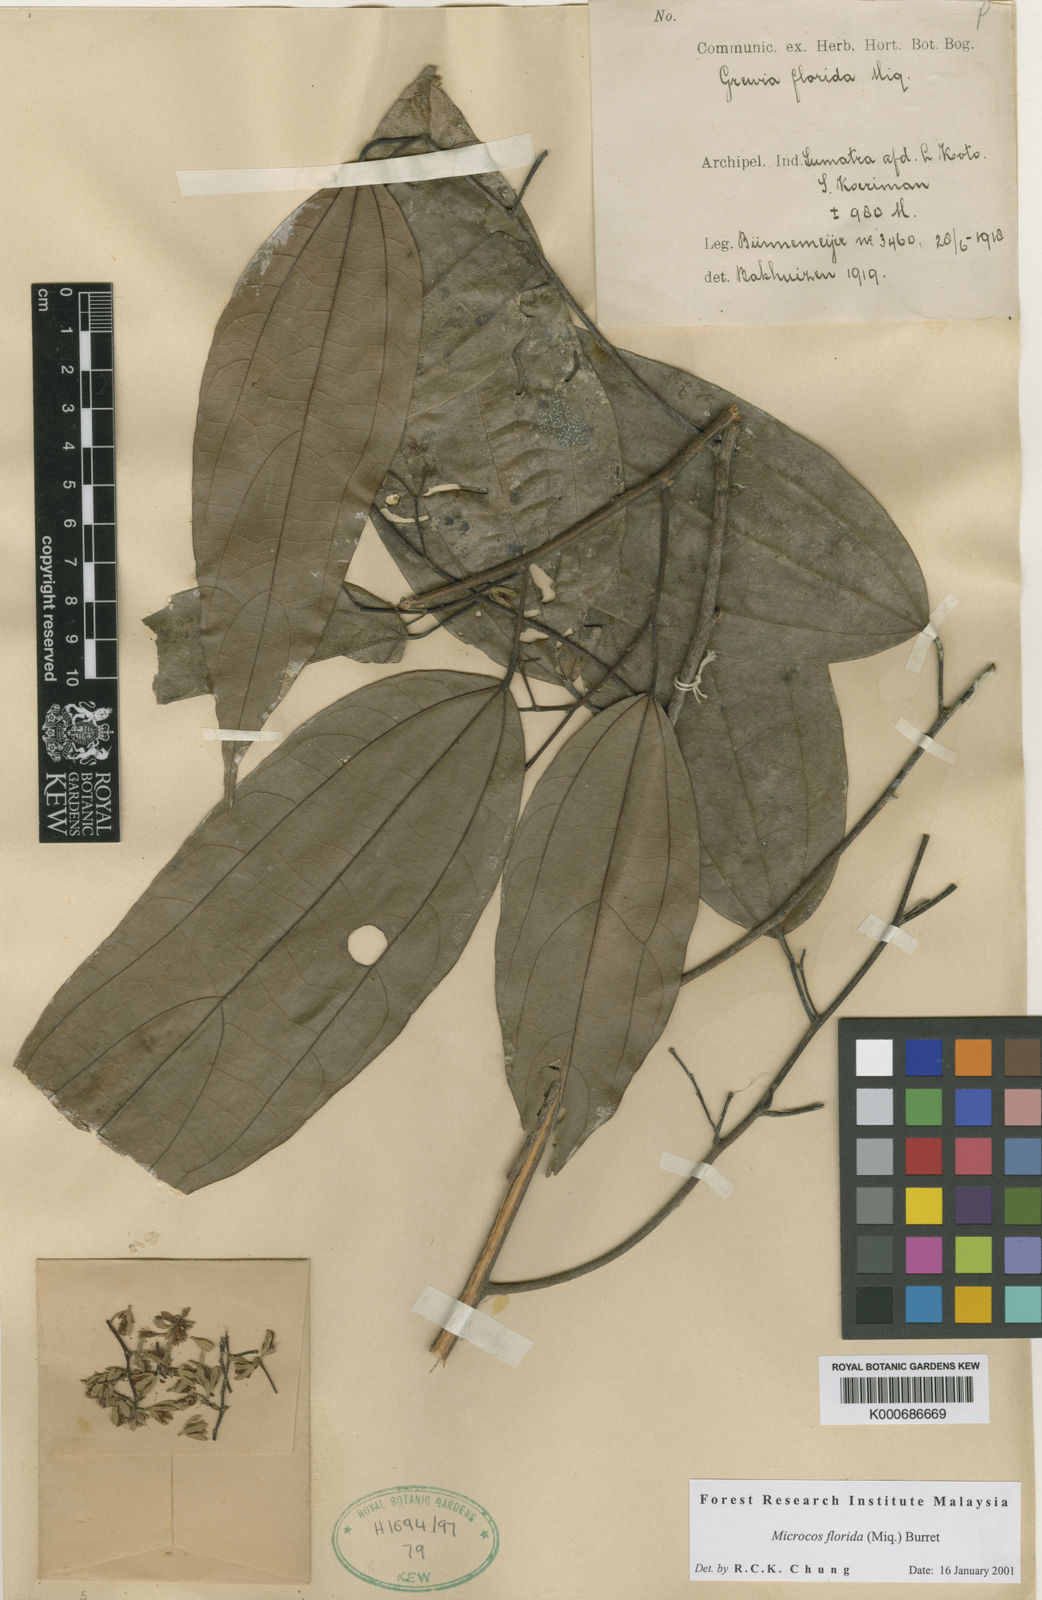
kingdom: Plantae
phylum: Tracheophyta
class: Magnoliopsida
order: Malvales
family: Malvaceae
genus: Microcos
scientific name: Microcos florida
